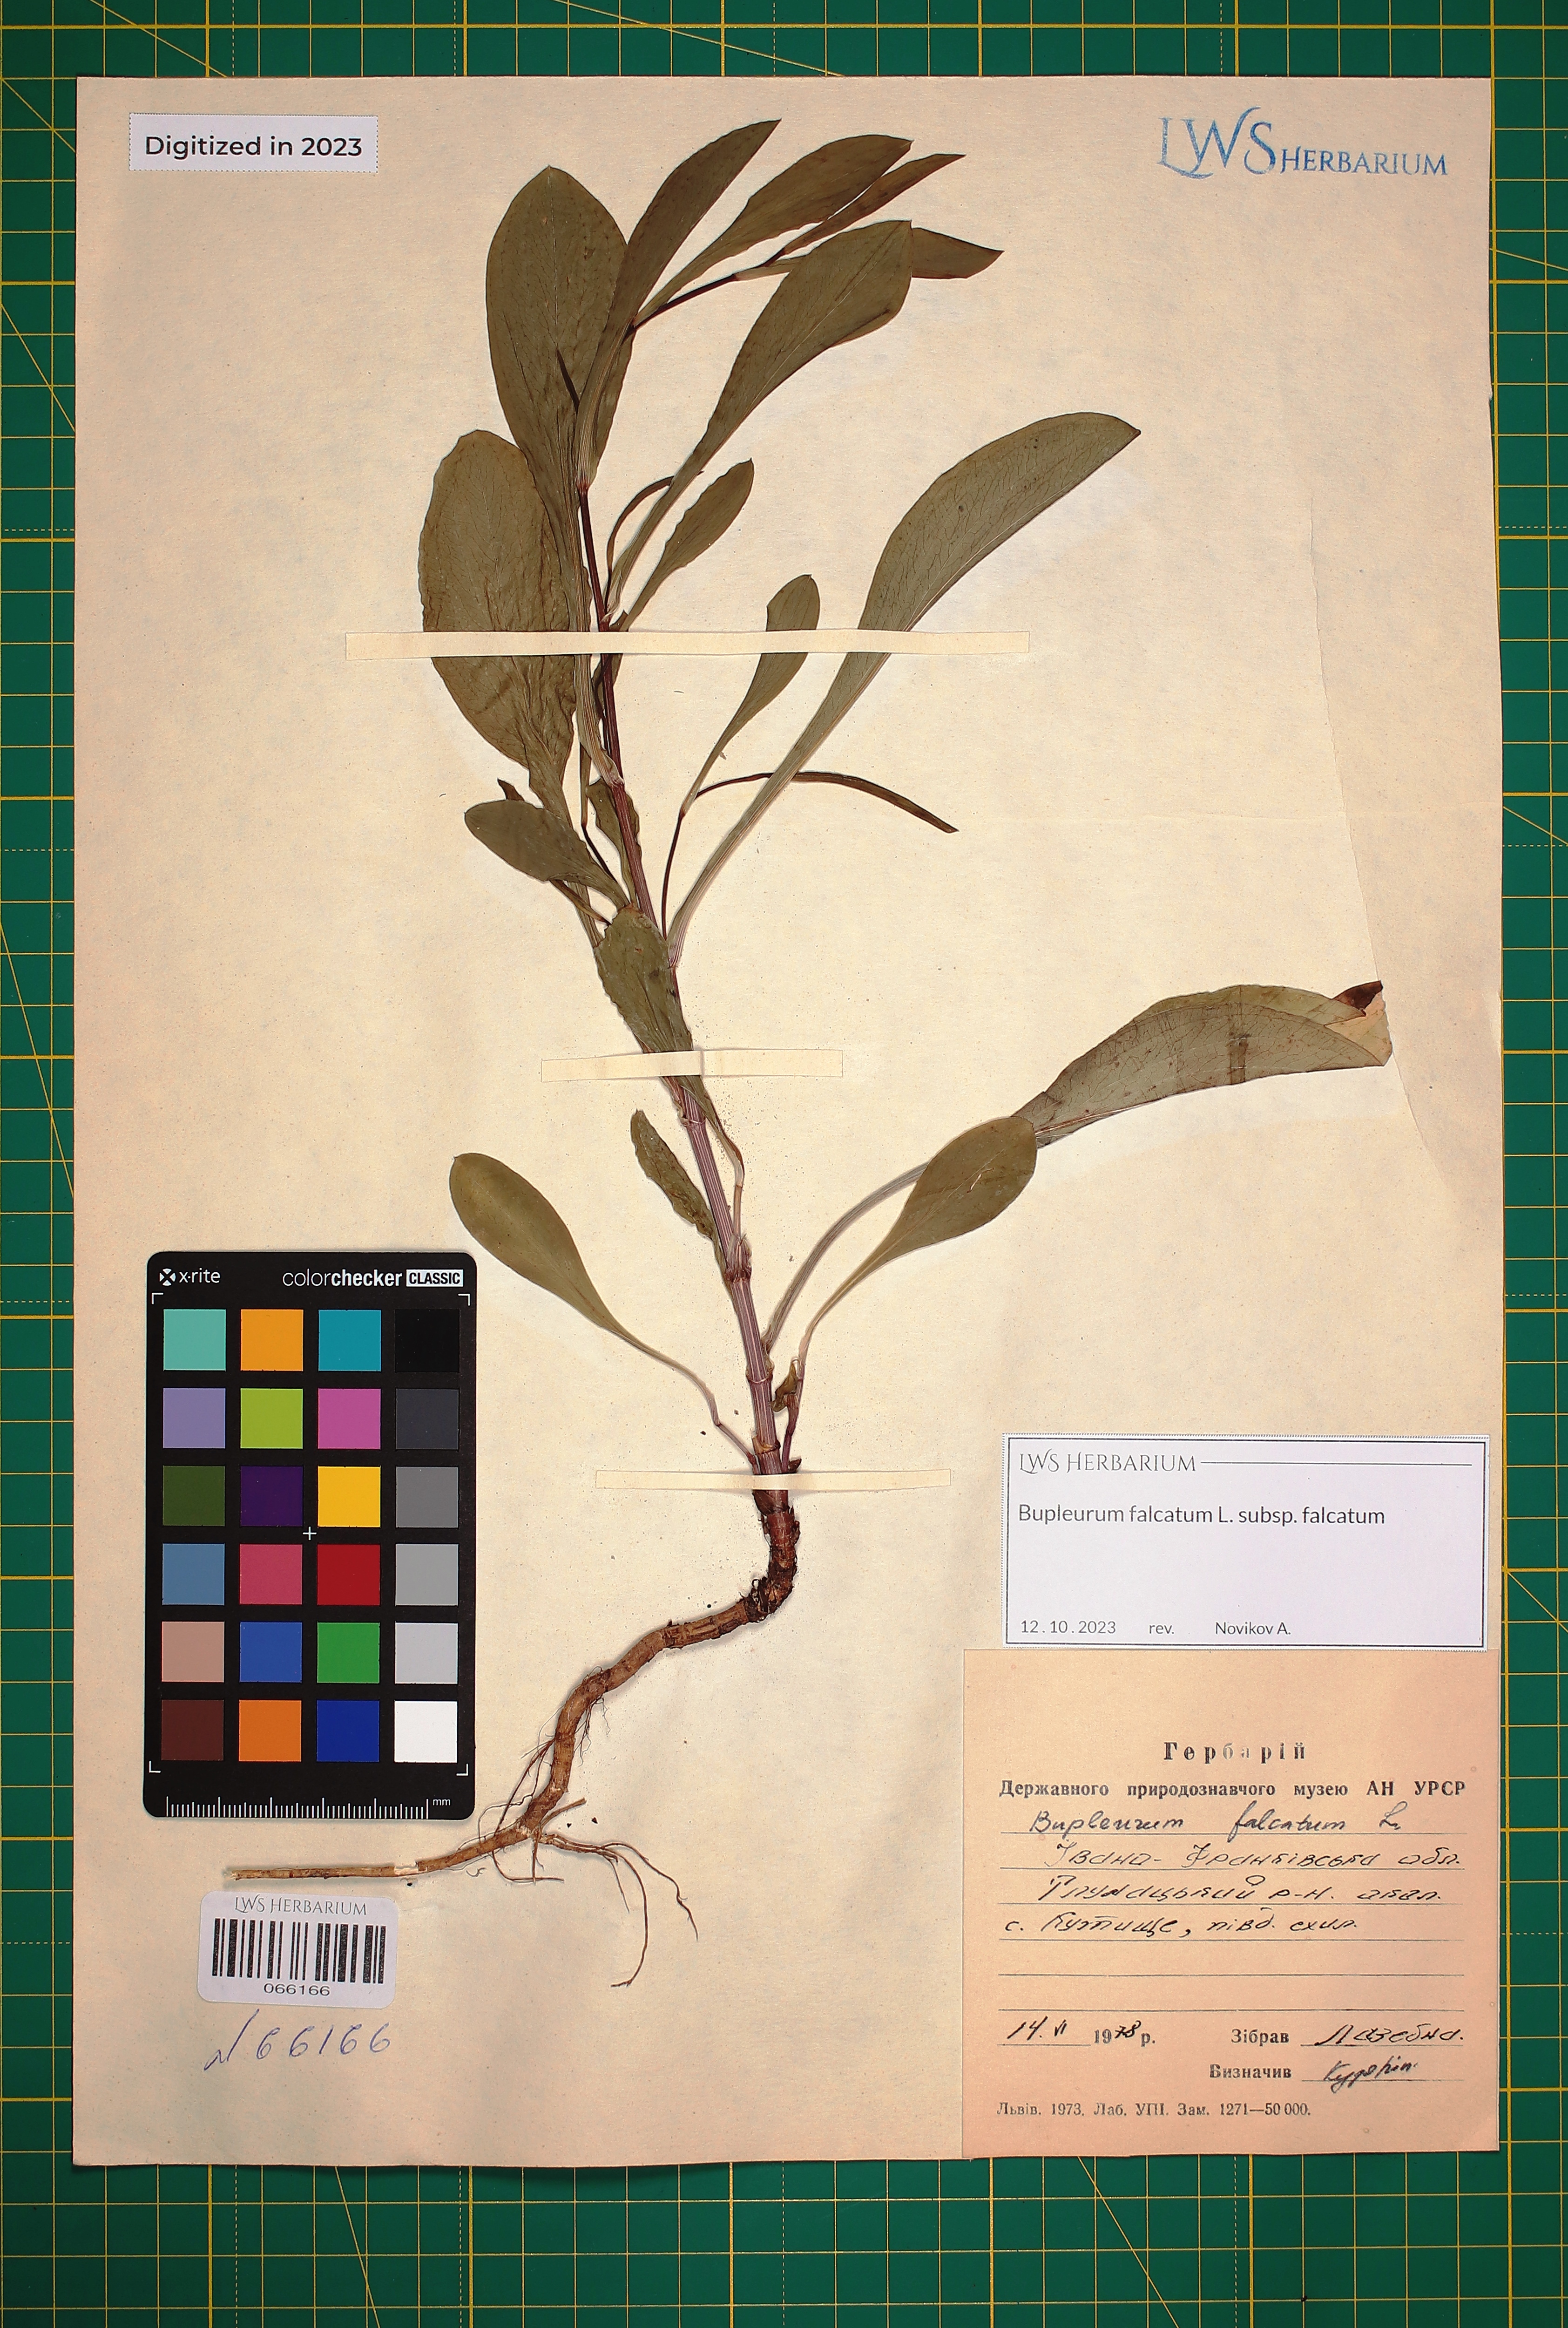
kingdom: Plantae
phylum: Tracheophyta
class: Magnoliopsida
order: Apiales
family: Apiaceae
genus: Bupleurum
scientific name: Bupleurum falcatum
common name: Sickle-leaved hare's-ear
